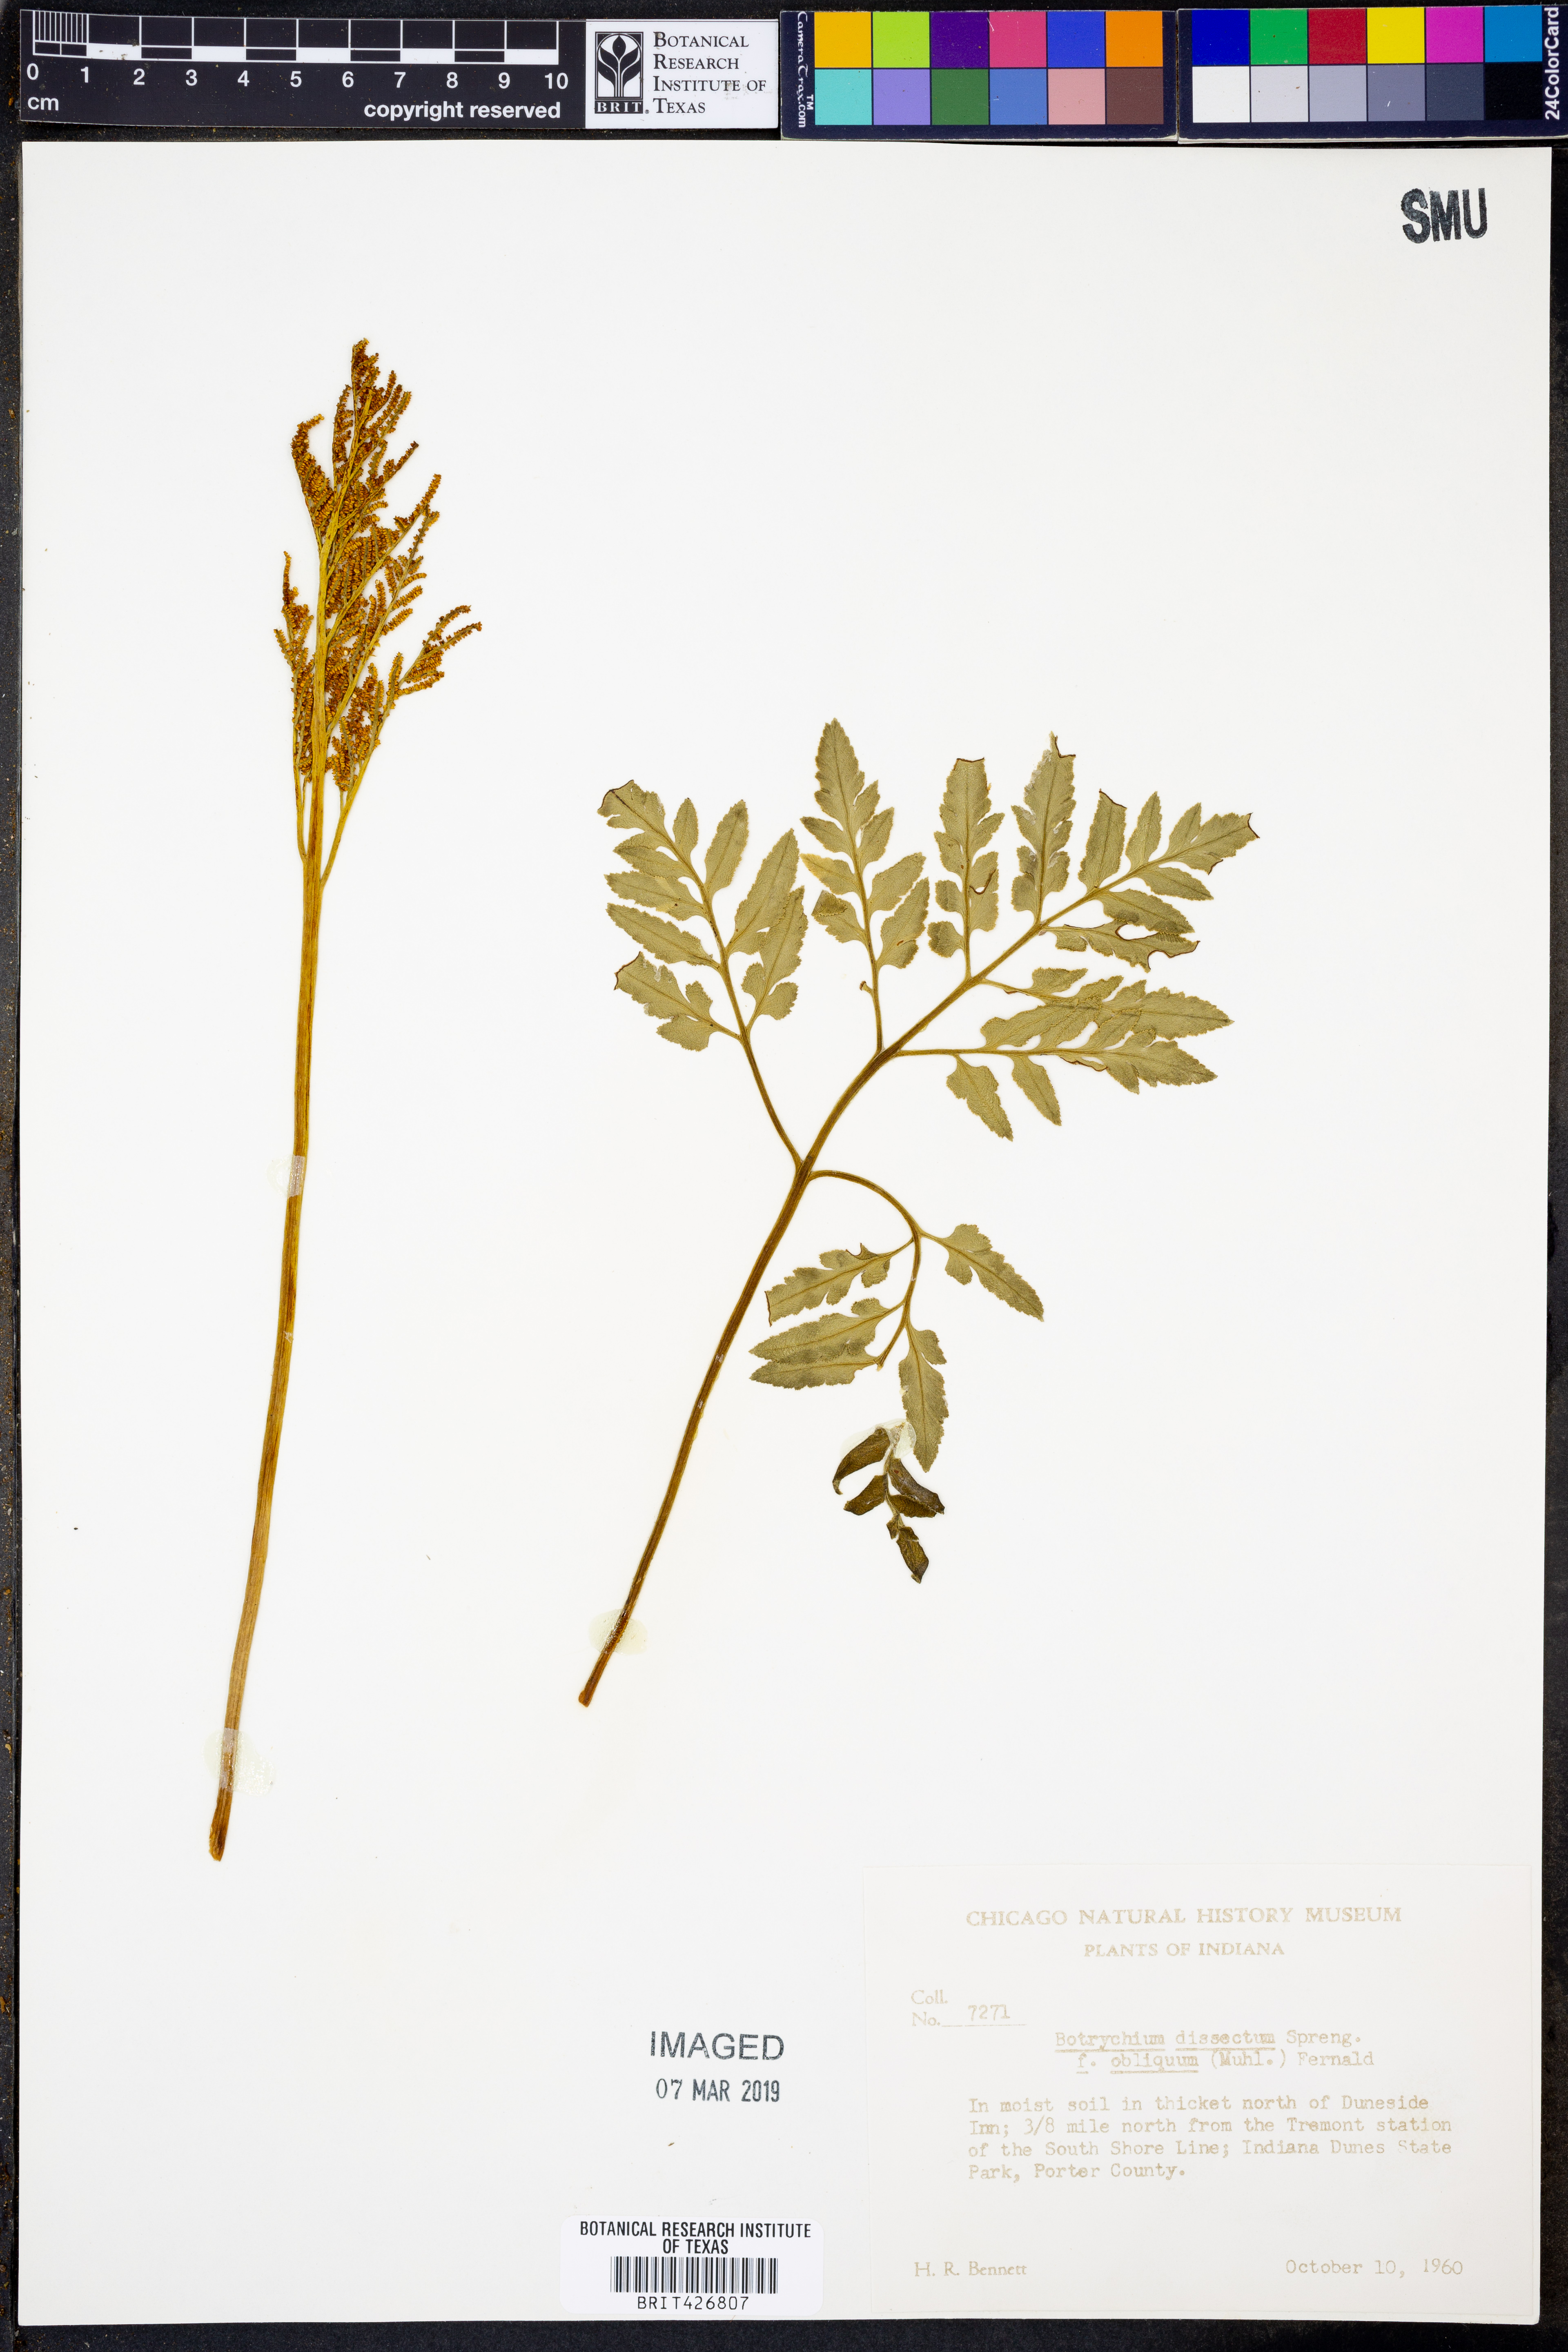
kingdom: Plantae
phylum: Tracheophyta
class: Polypodiopsida
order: Ophioglossales
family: Ophioglossaceae
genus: Sceptridium
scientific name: Sceptridium dissectum
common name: Cut-leaved grapefern
